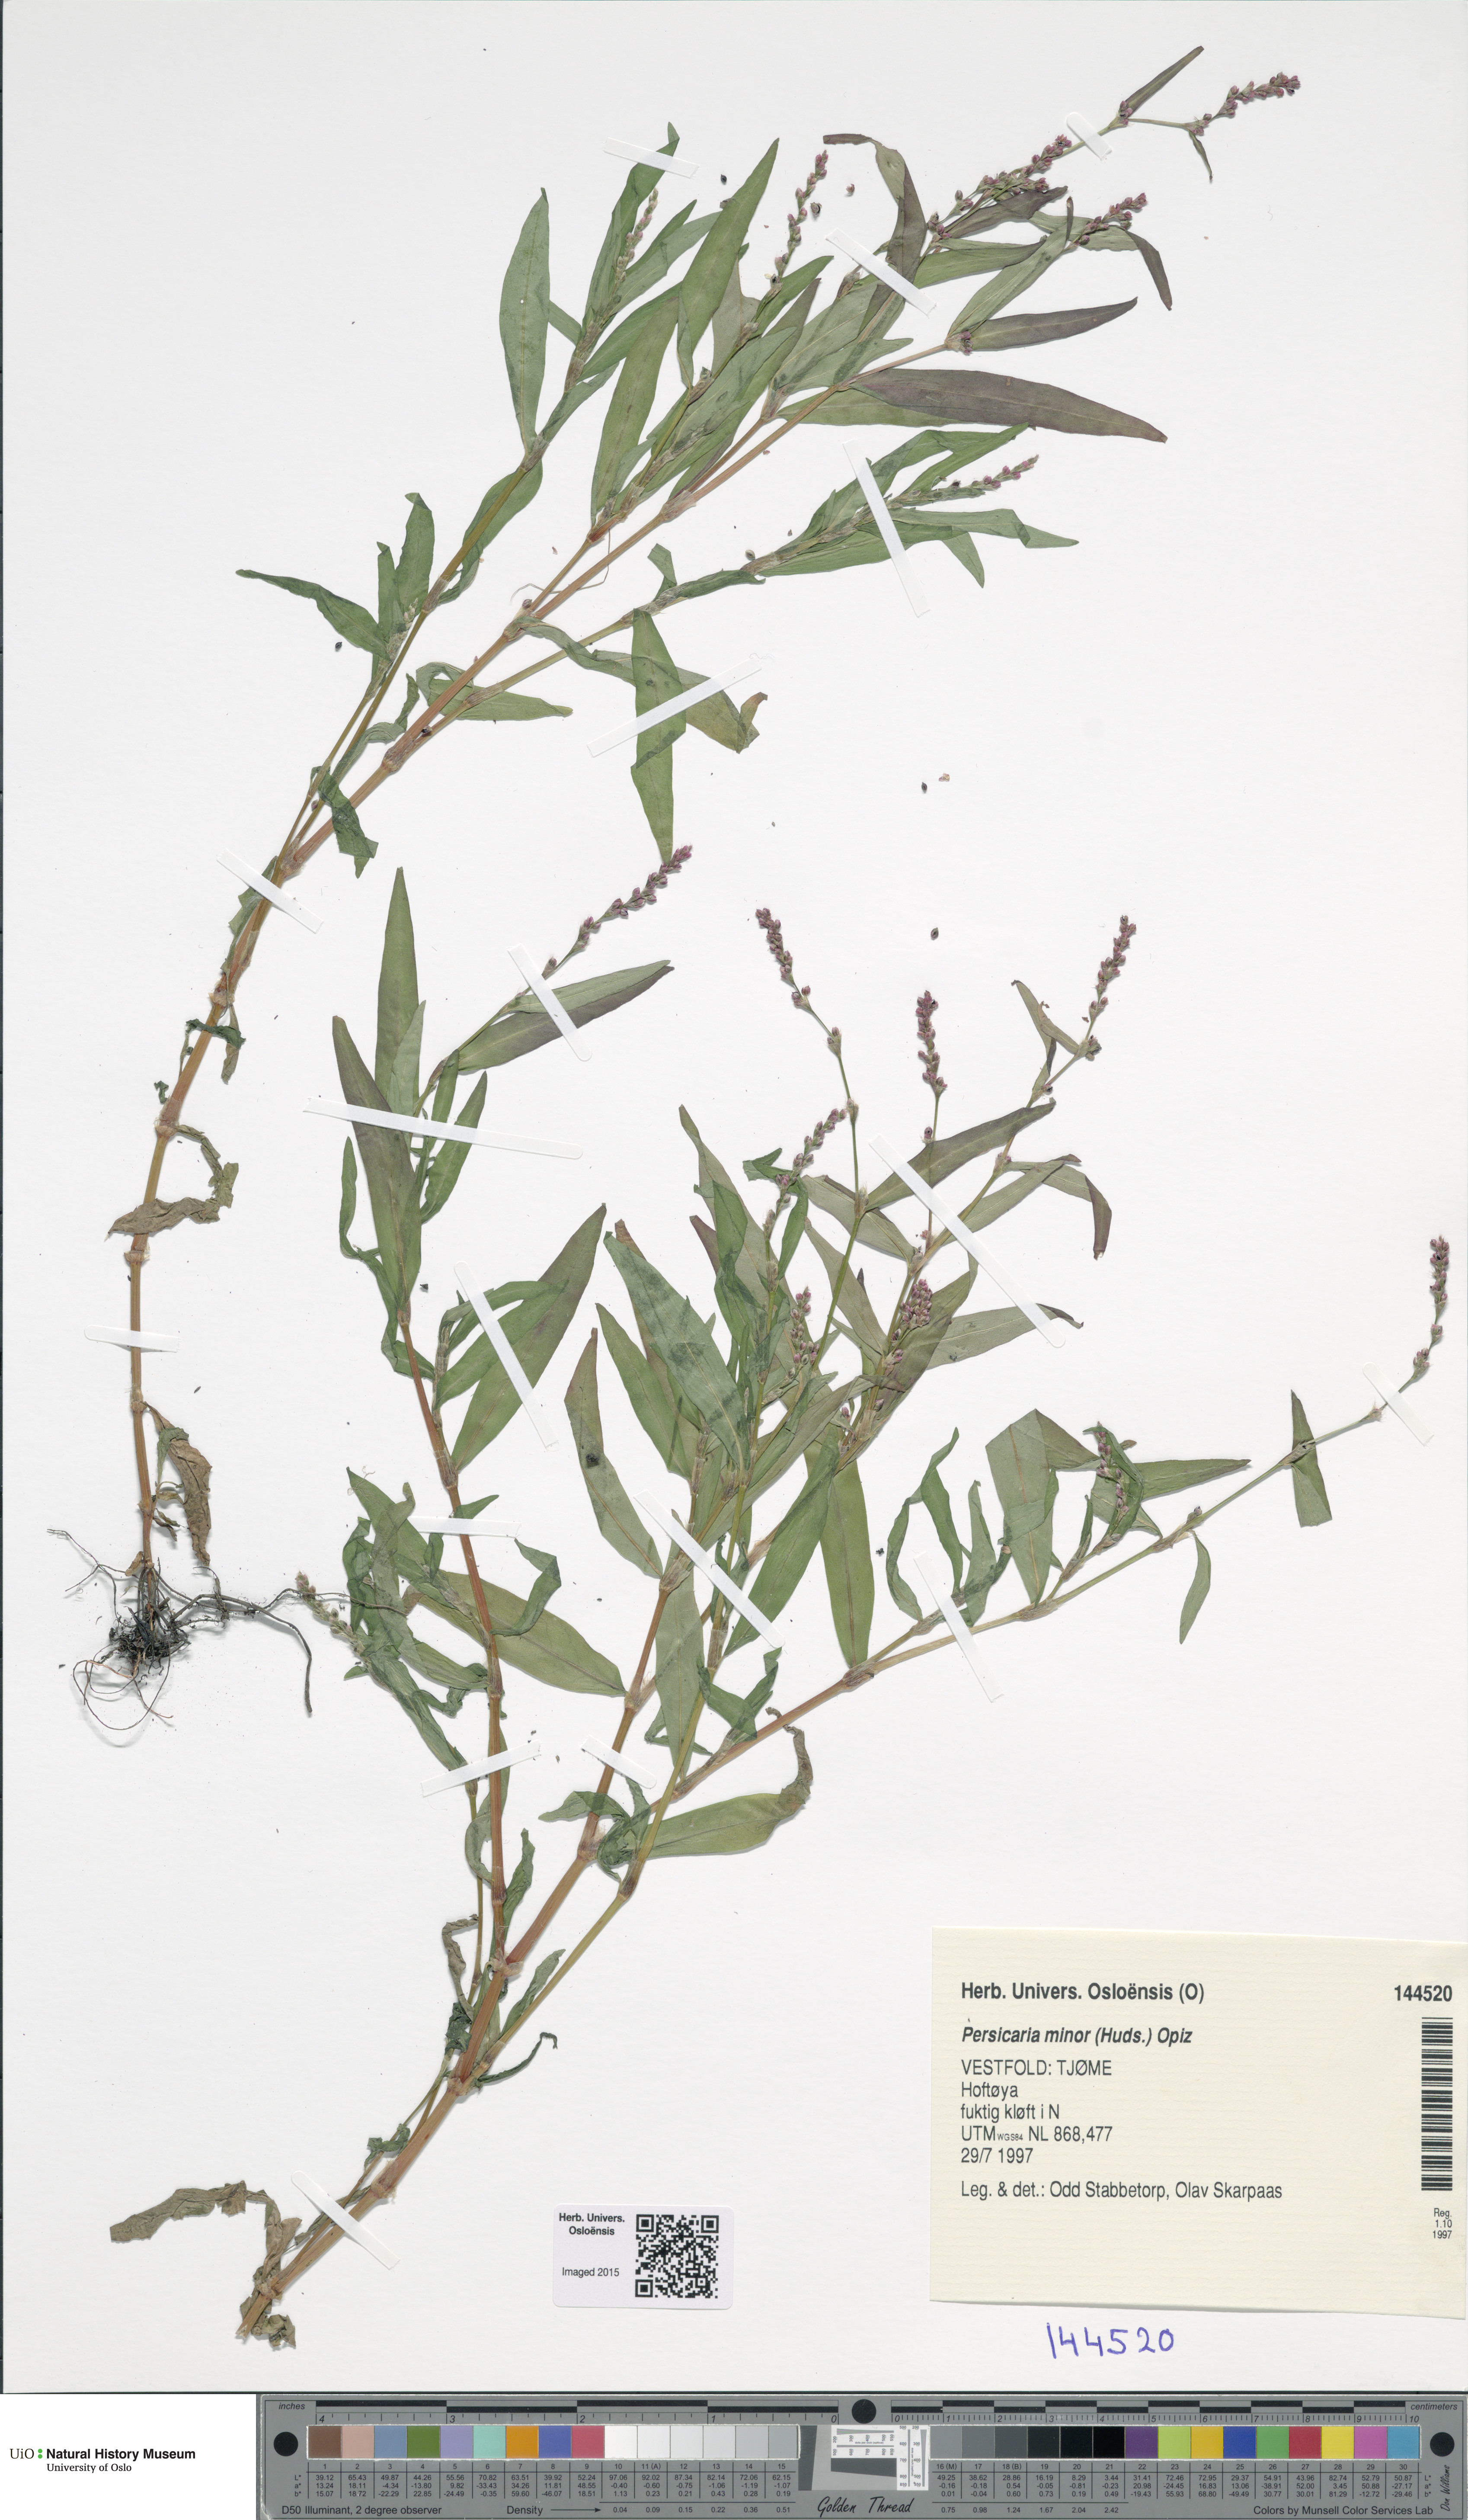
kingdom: Plantae
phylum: Tracheophyta
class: Magnoliopsida
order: Caryophyllales
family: Polygonaceae
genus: Persicaria
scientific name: Persicaria minor
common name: Small water-pepper
